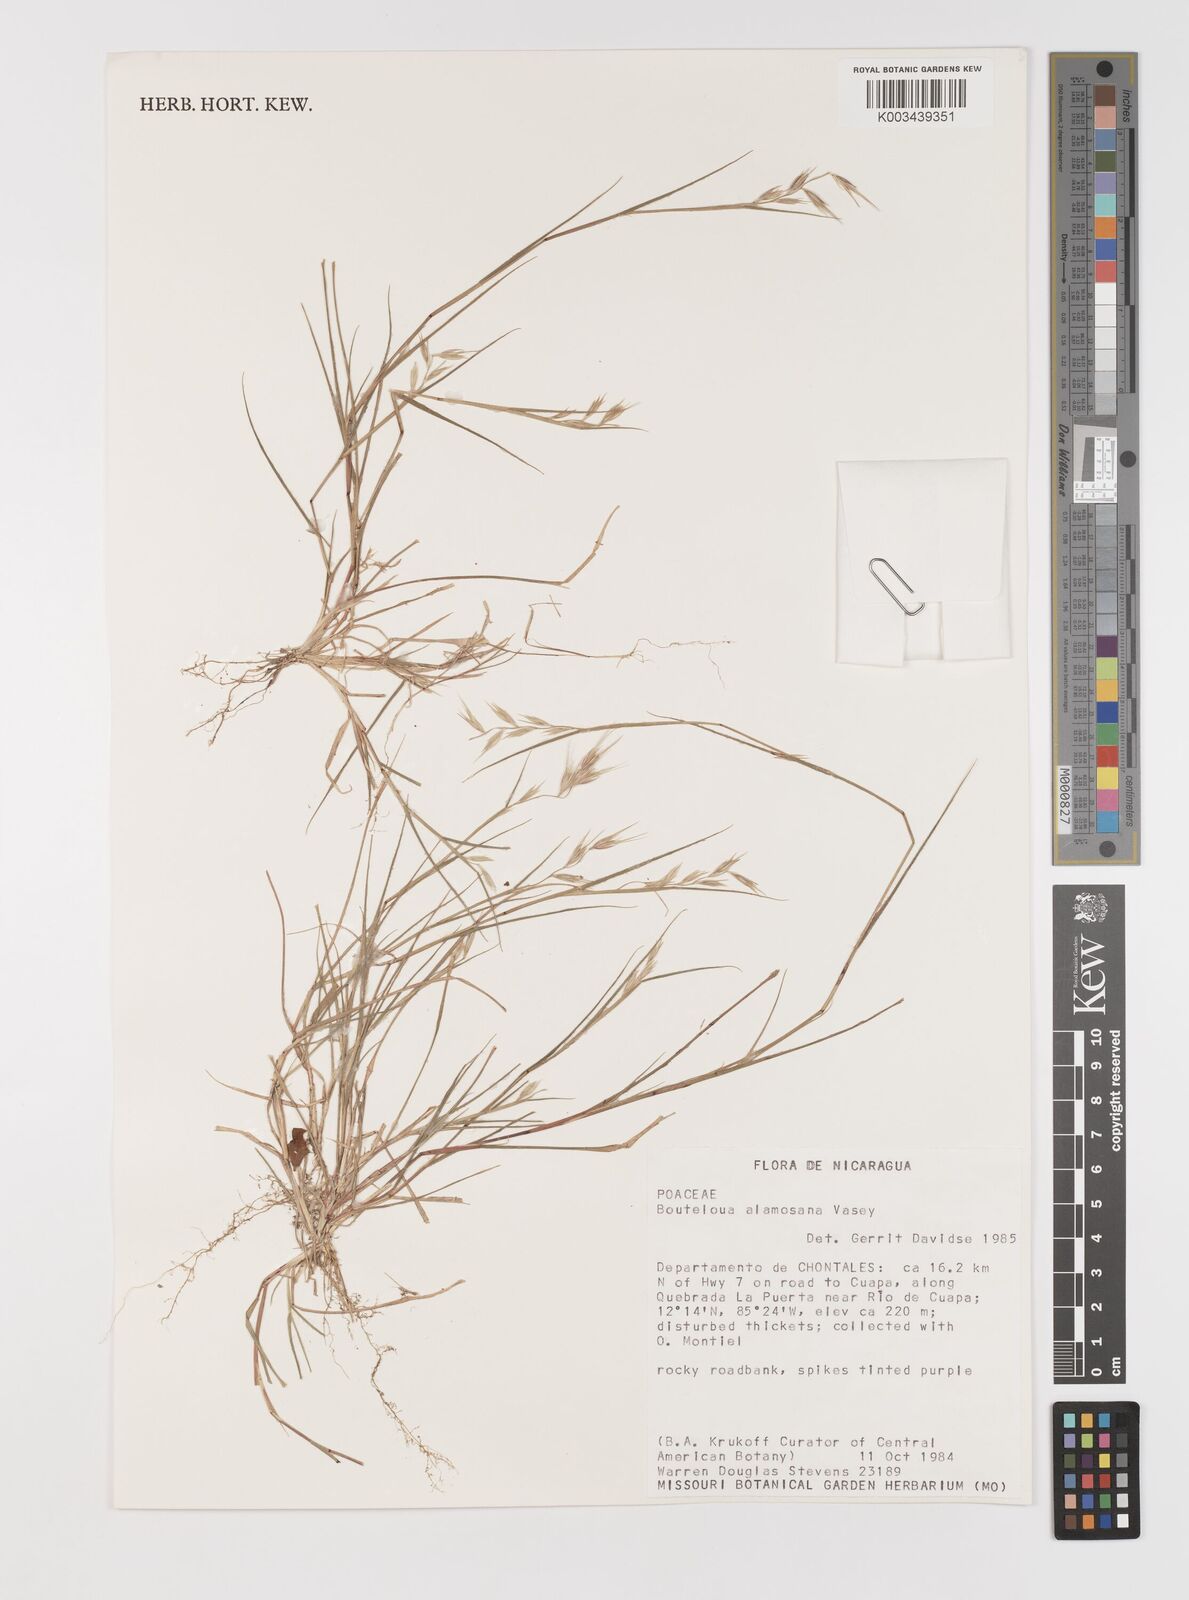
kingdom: Plantae
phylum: Tracheophyta
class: Liliopsida
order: Poales
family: Poaceae
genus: Bouteloua
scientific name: Bouteloua alamosana
